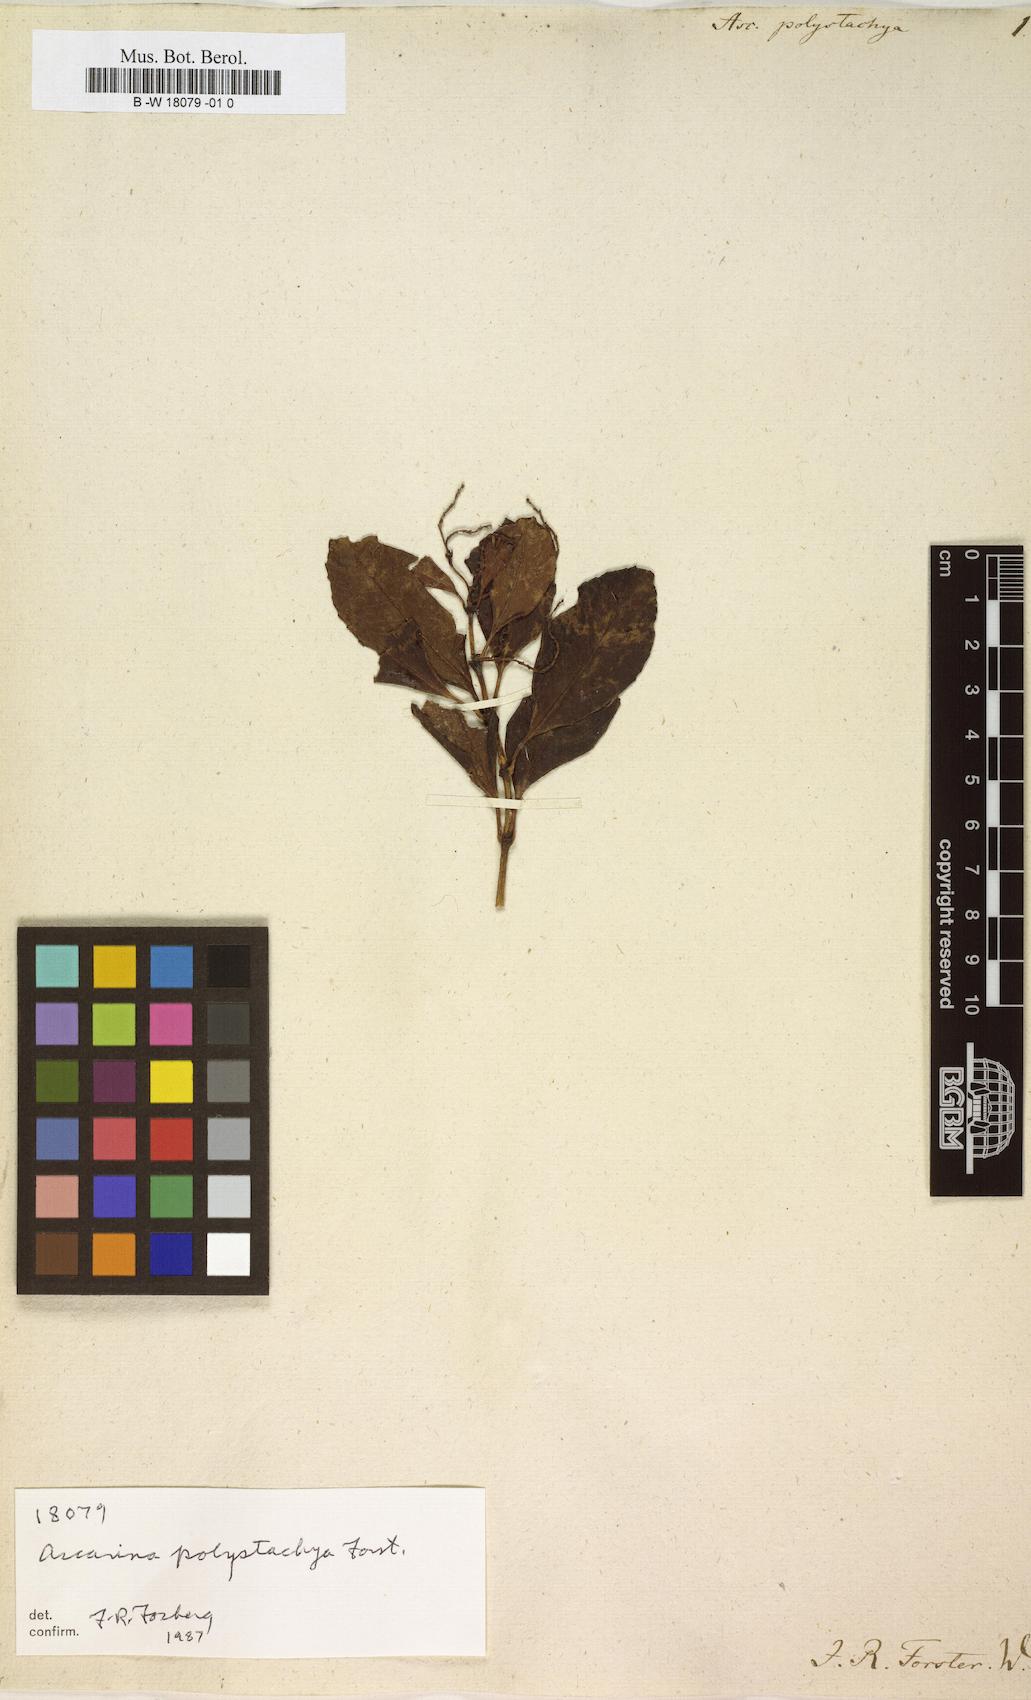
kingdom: Plantae
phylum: Tracheophyta
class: Magnoliopsida
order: Chloranthales
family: Chloranthaceae
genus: Ascarina
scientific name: Ascarina polystachya
